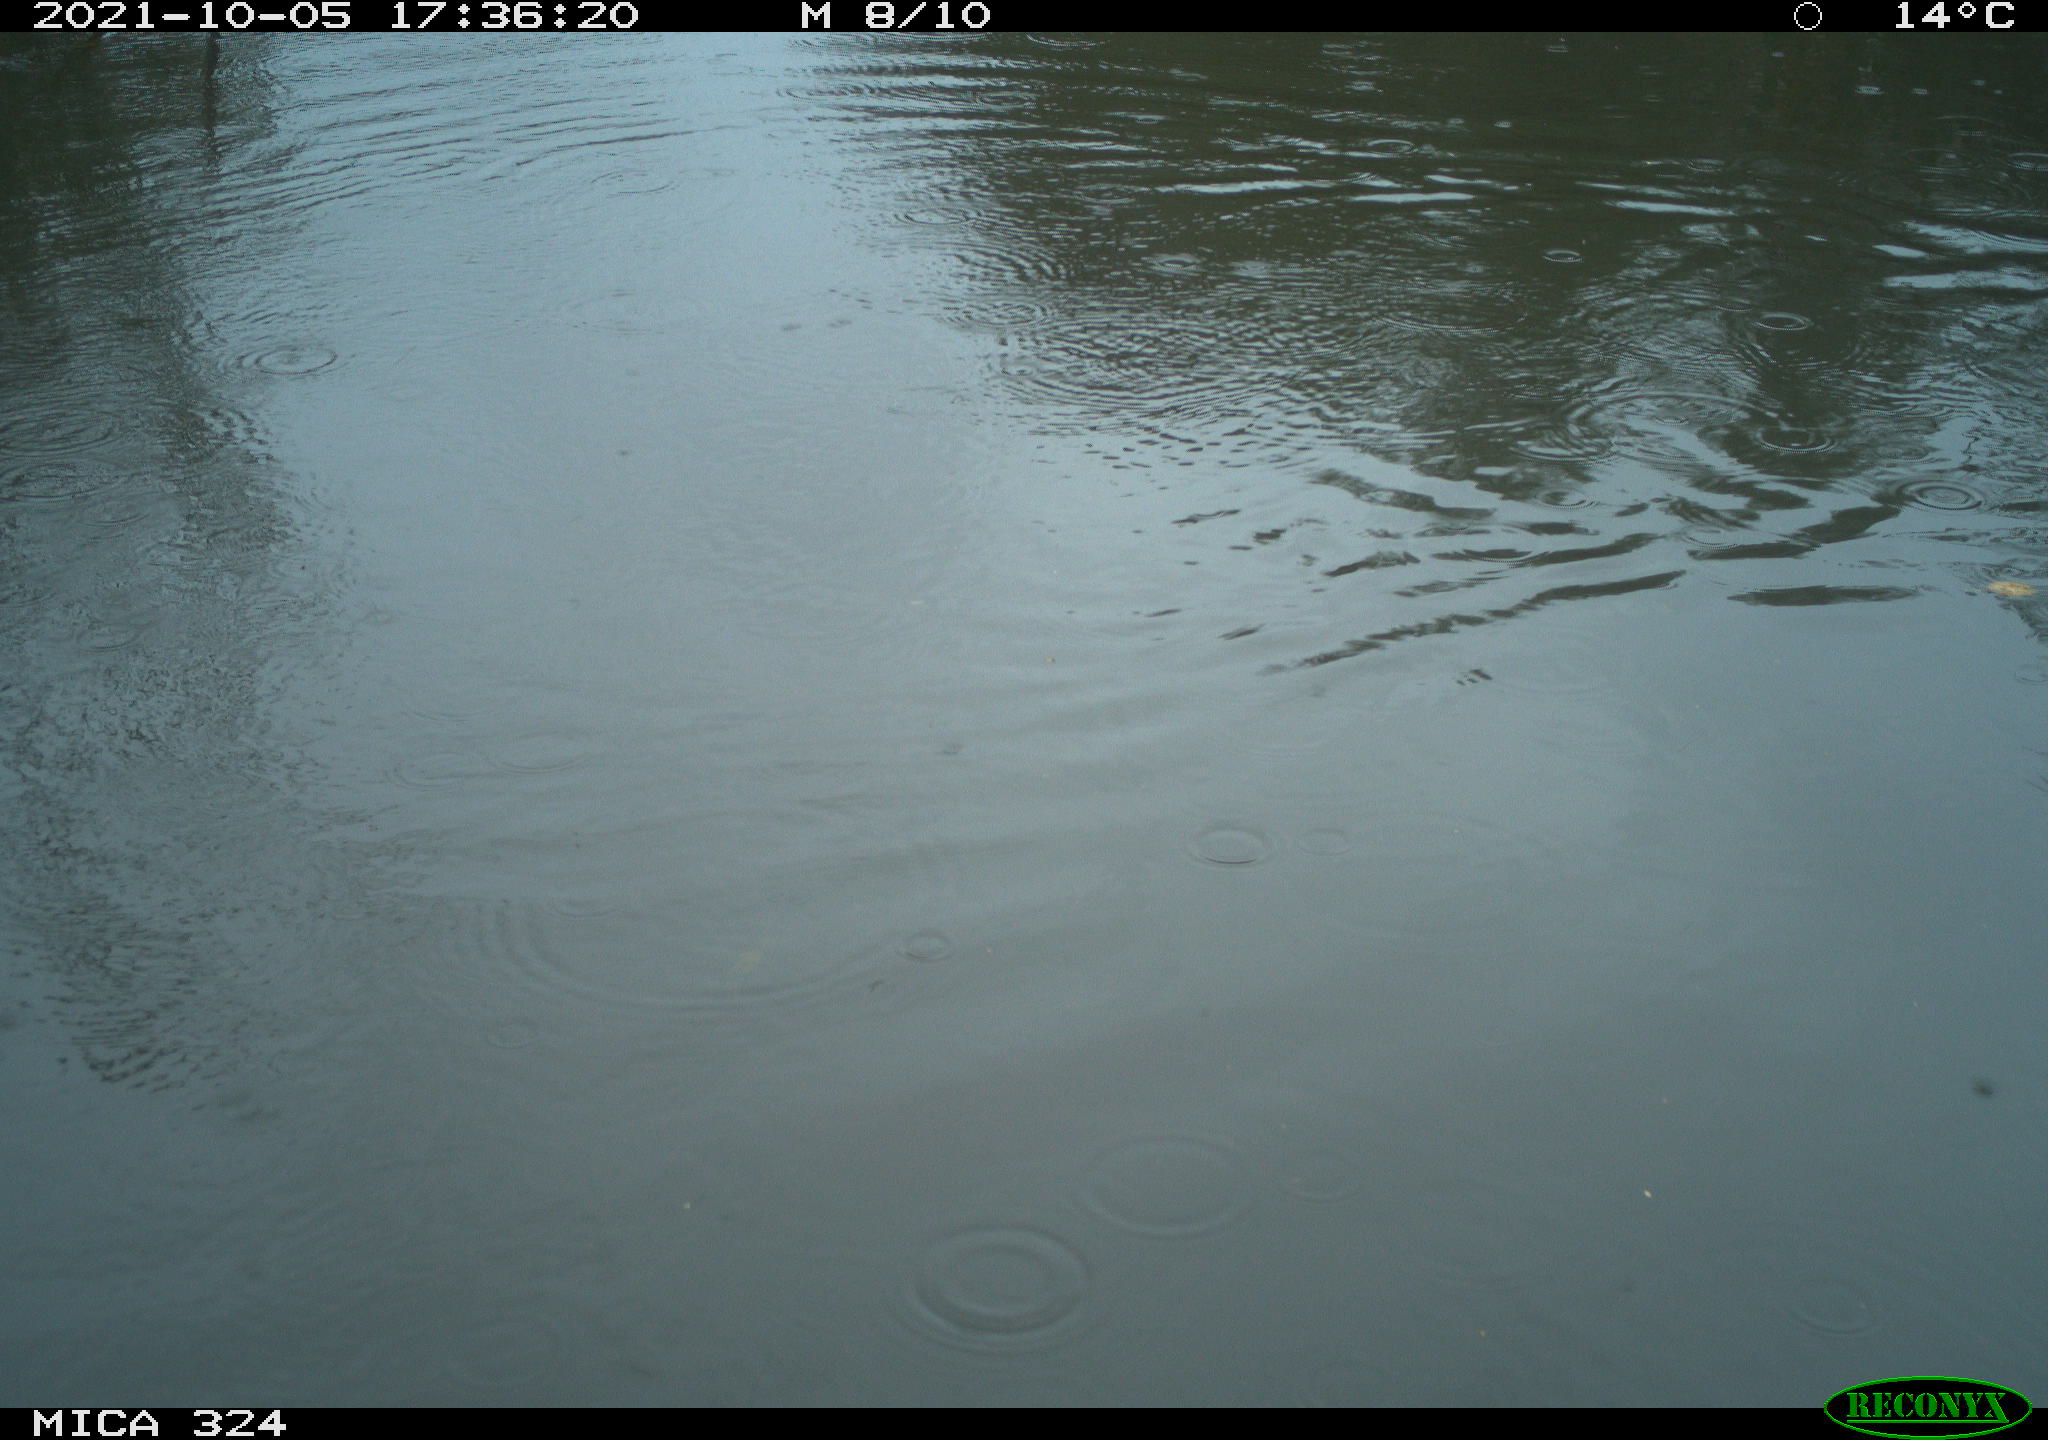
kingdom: Animalia
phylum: Chordata
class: Aves
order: Gruiformes
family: Rallidae
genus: Gallinula
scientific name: Gallinula chloropus
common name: Common moorhen
